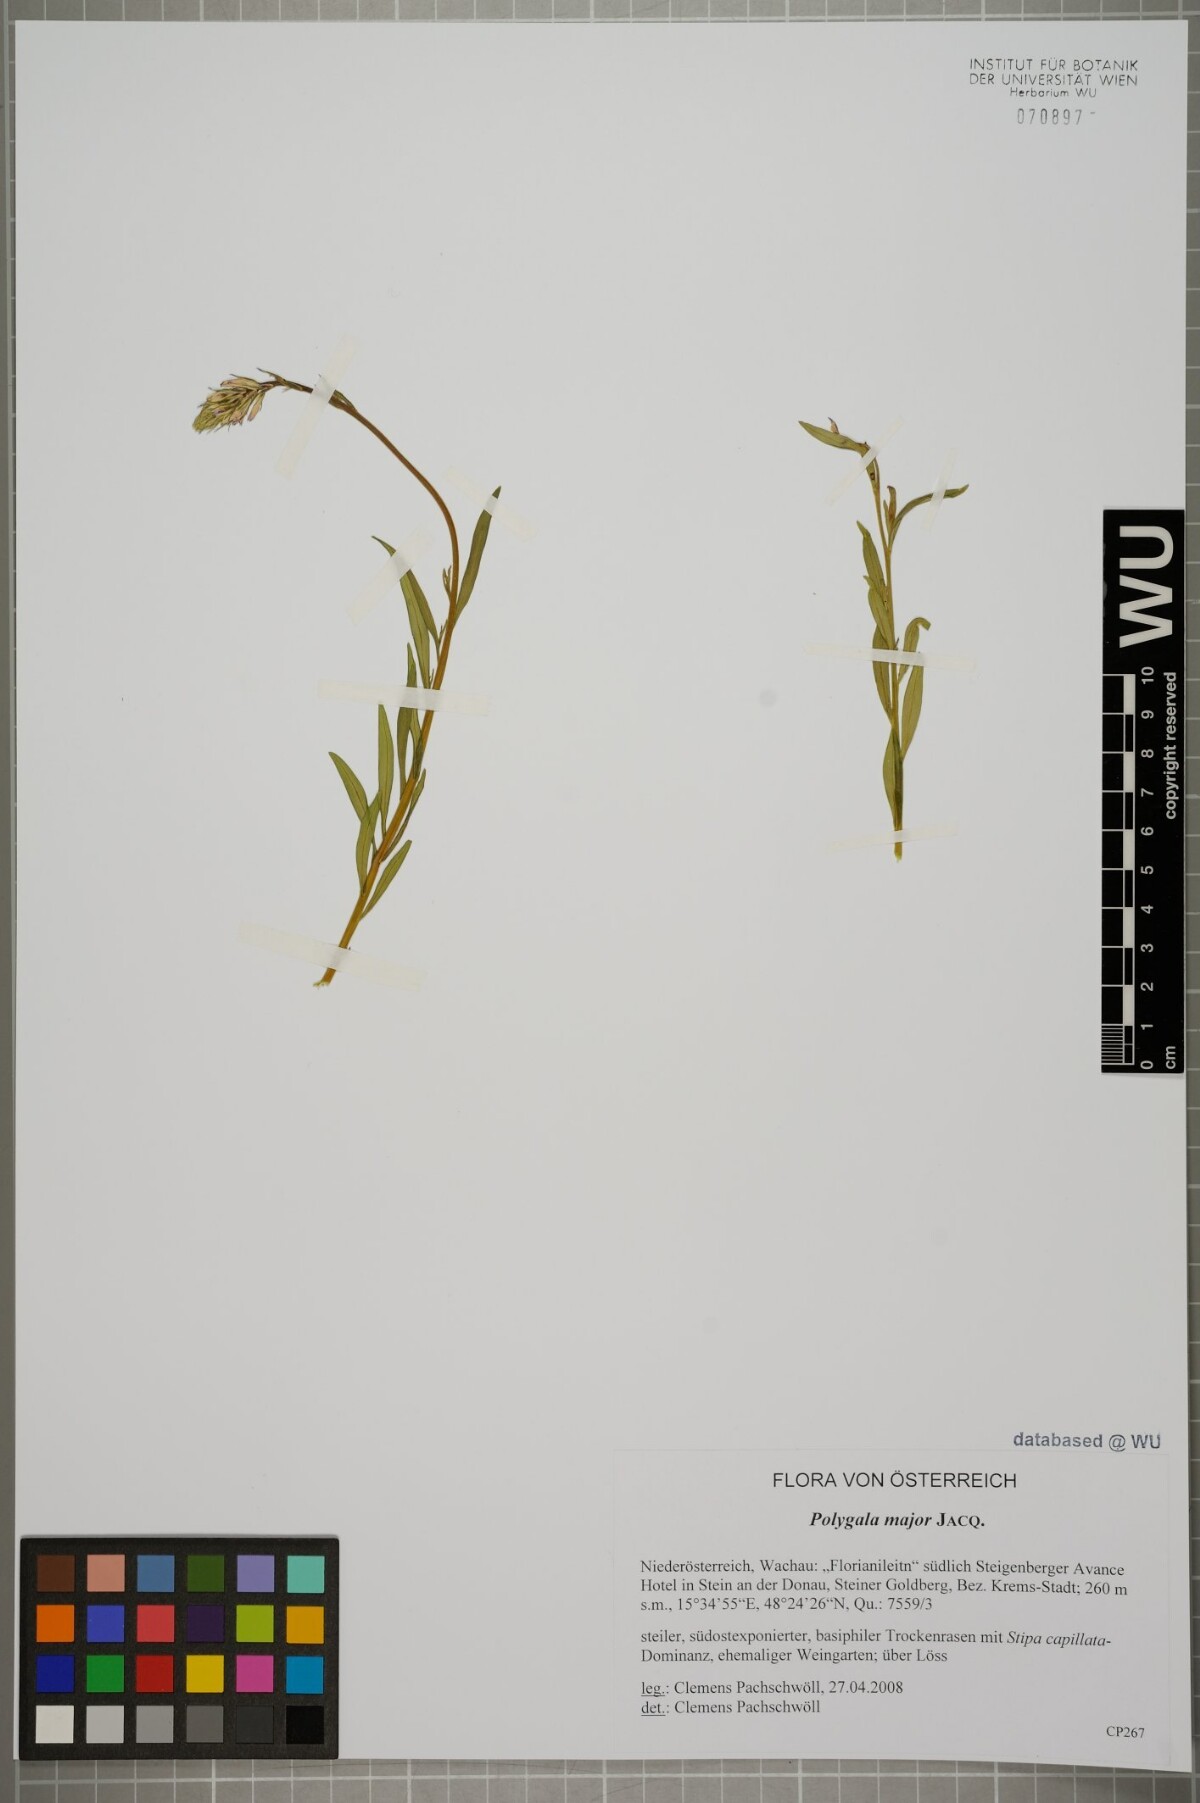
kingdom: Plantae
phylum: Tracheophyta
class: Magnoliopsida
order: Fabales
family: Polygalaceae
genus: Polygala
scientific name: Polygala major
